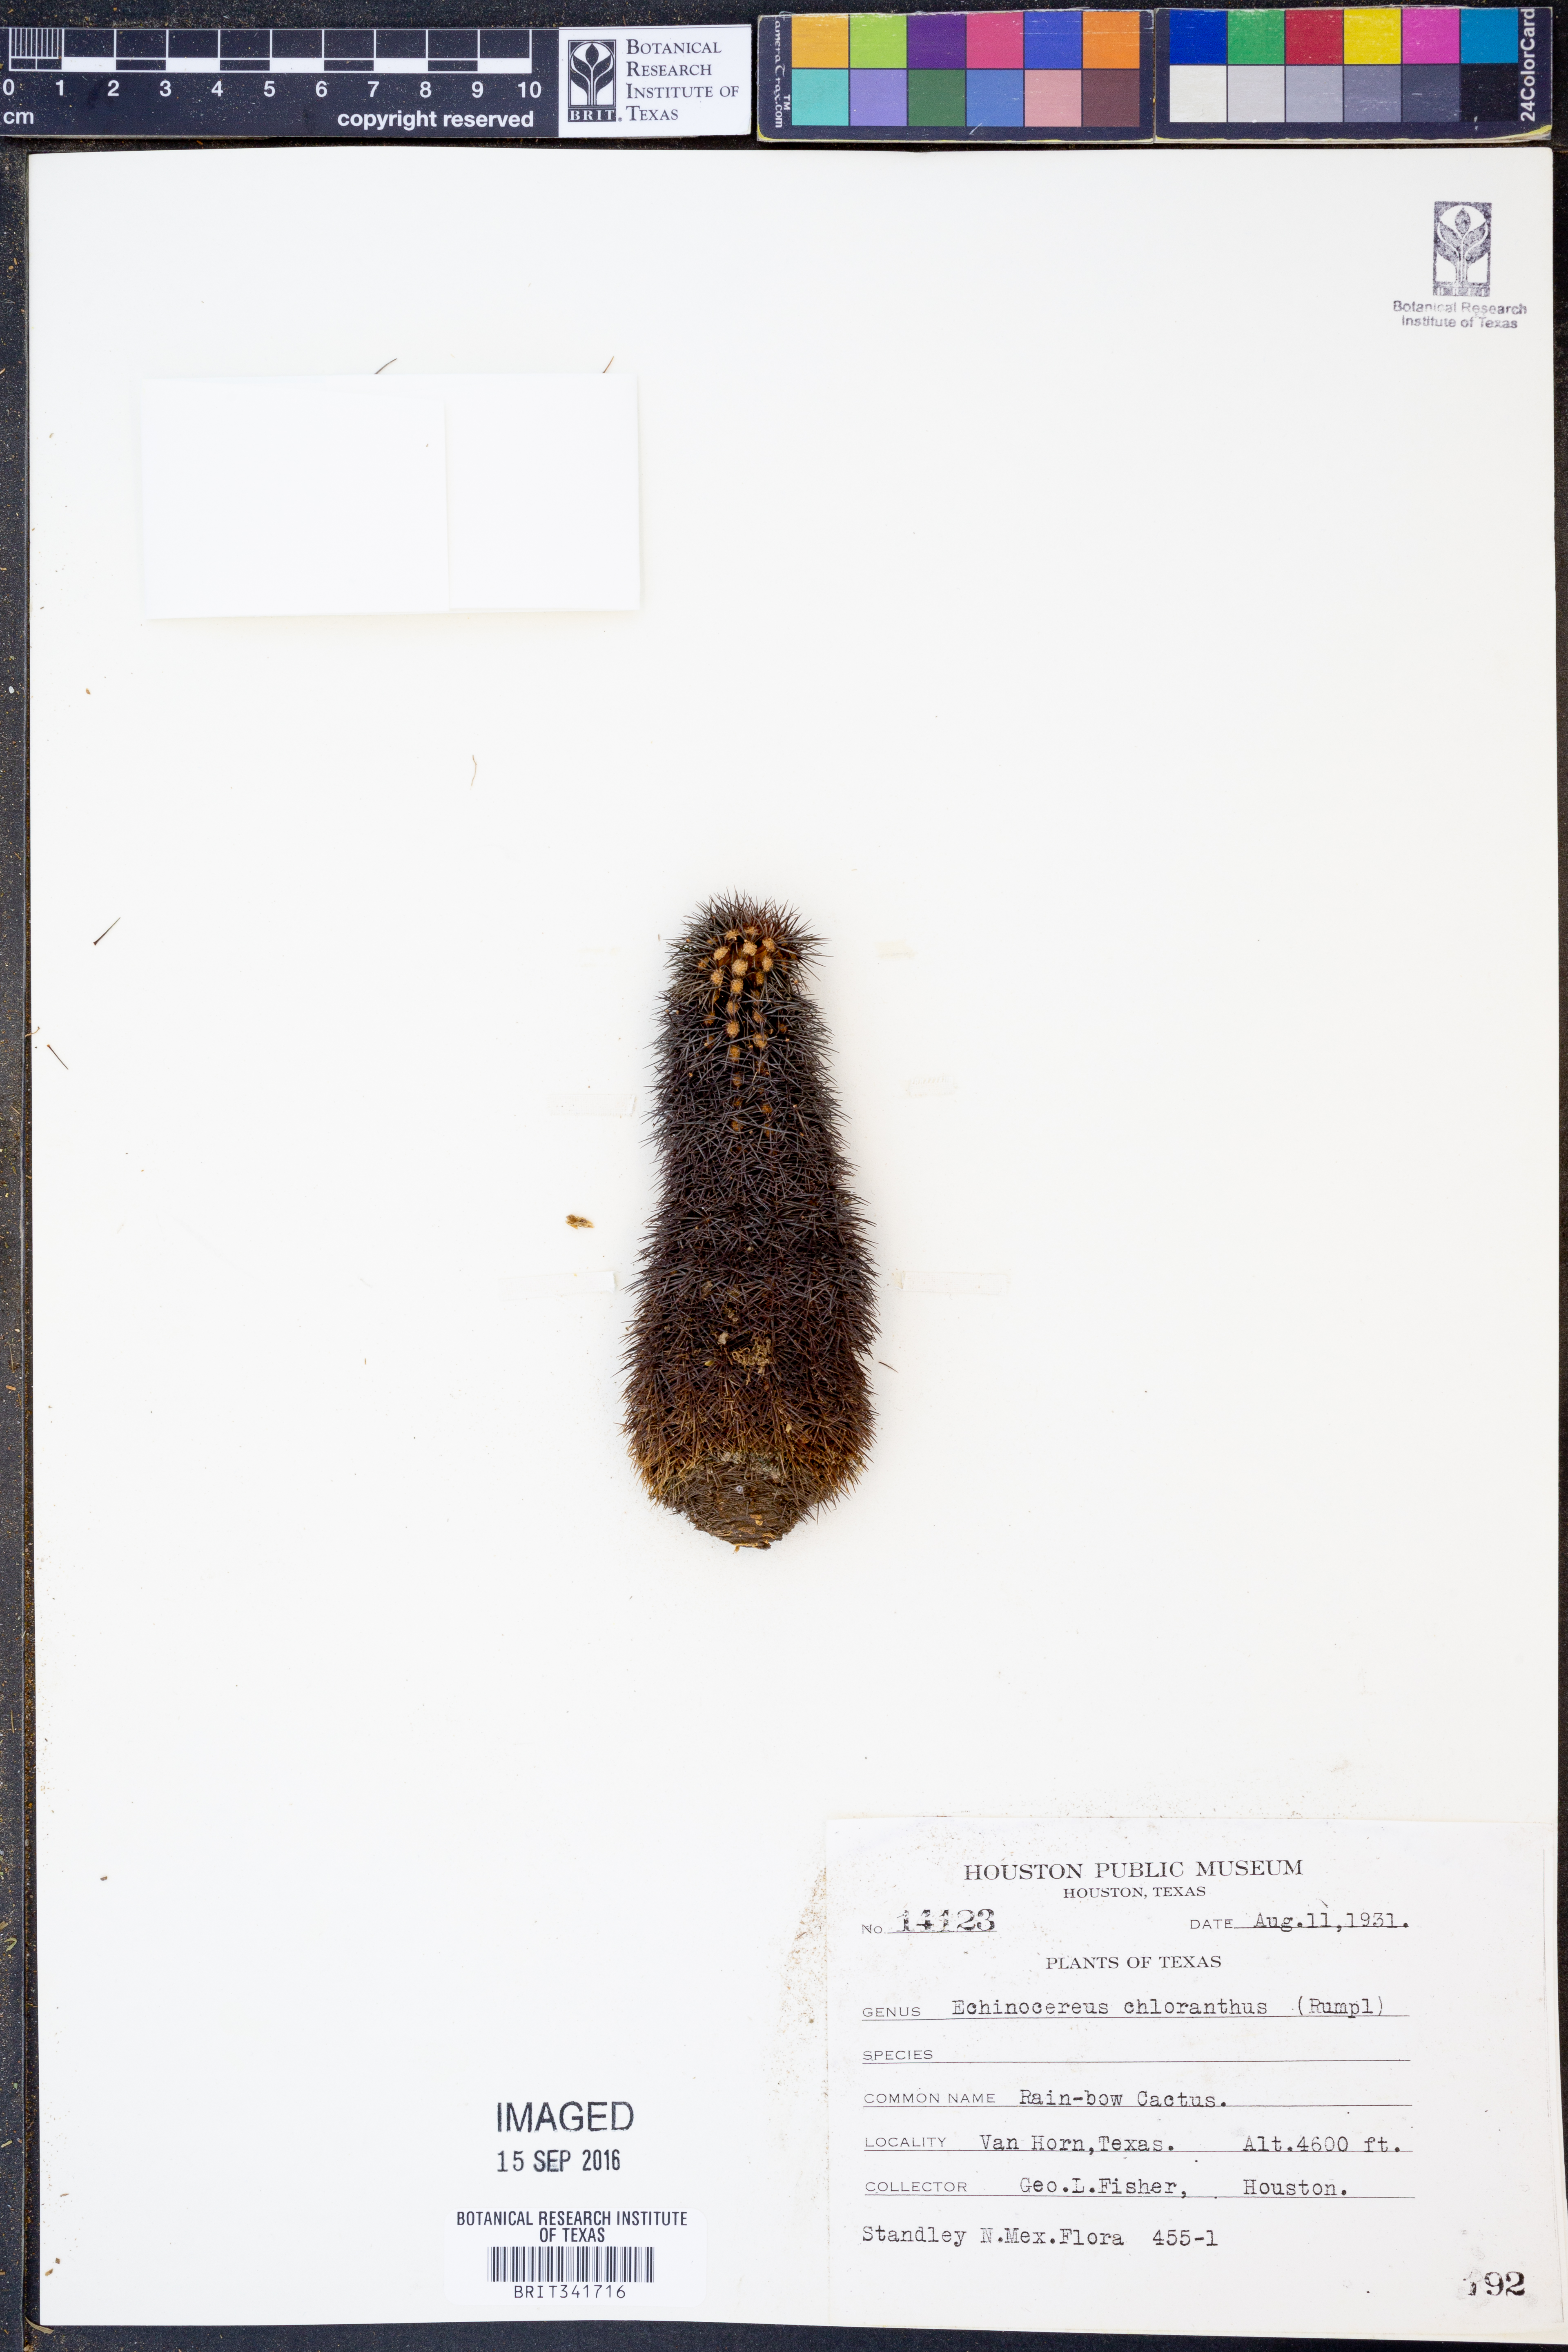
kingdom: Plantae
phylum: Tracheophyta
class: Magnoliopsida
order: Caryophyllales
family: Cactaceae
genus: Echinocereus
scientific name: Echinocereus viridiflorus
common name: Nylon hedgehog cactus
